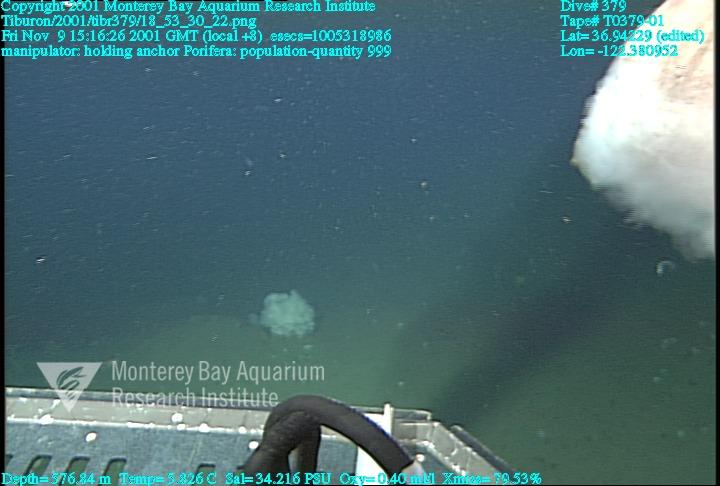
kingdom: Animalia
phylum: Porifera
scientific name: Porifera
